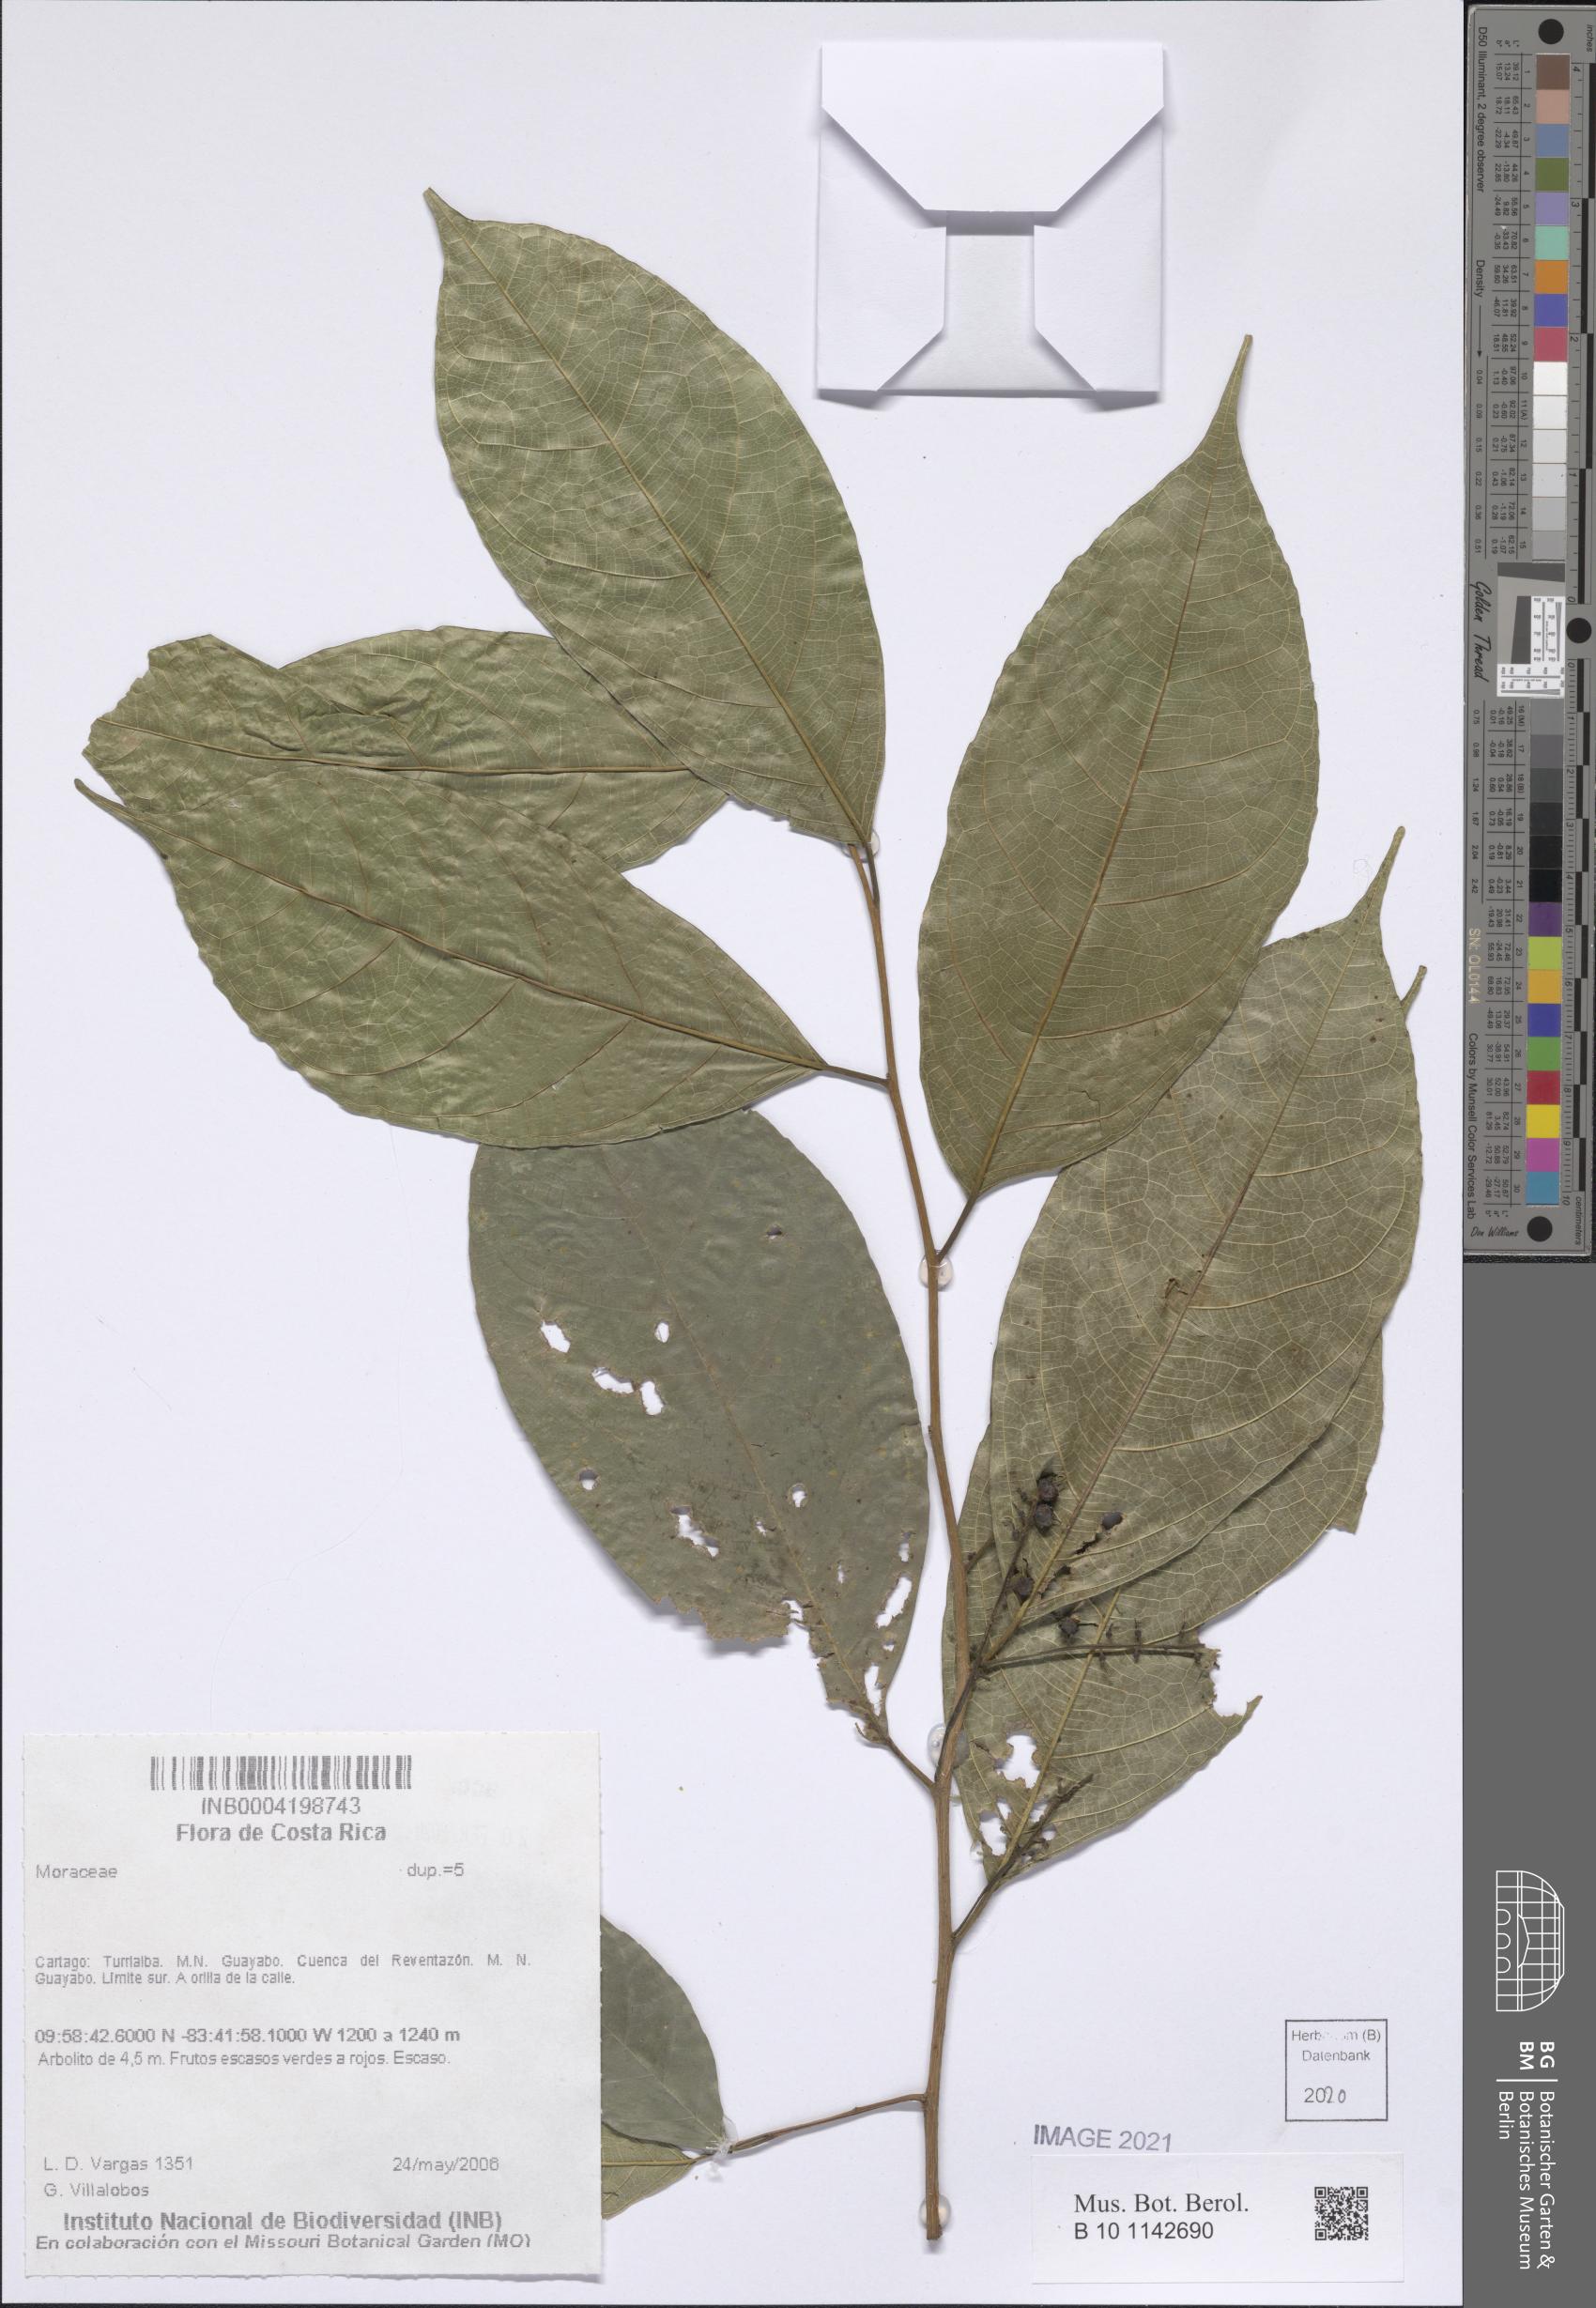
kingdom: Plantae
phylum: Tracheophyta
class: Magnoliopsida
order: Rosales
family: Moraceae
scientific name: Moraceae
